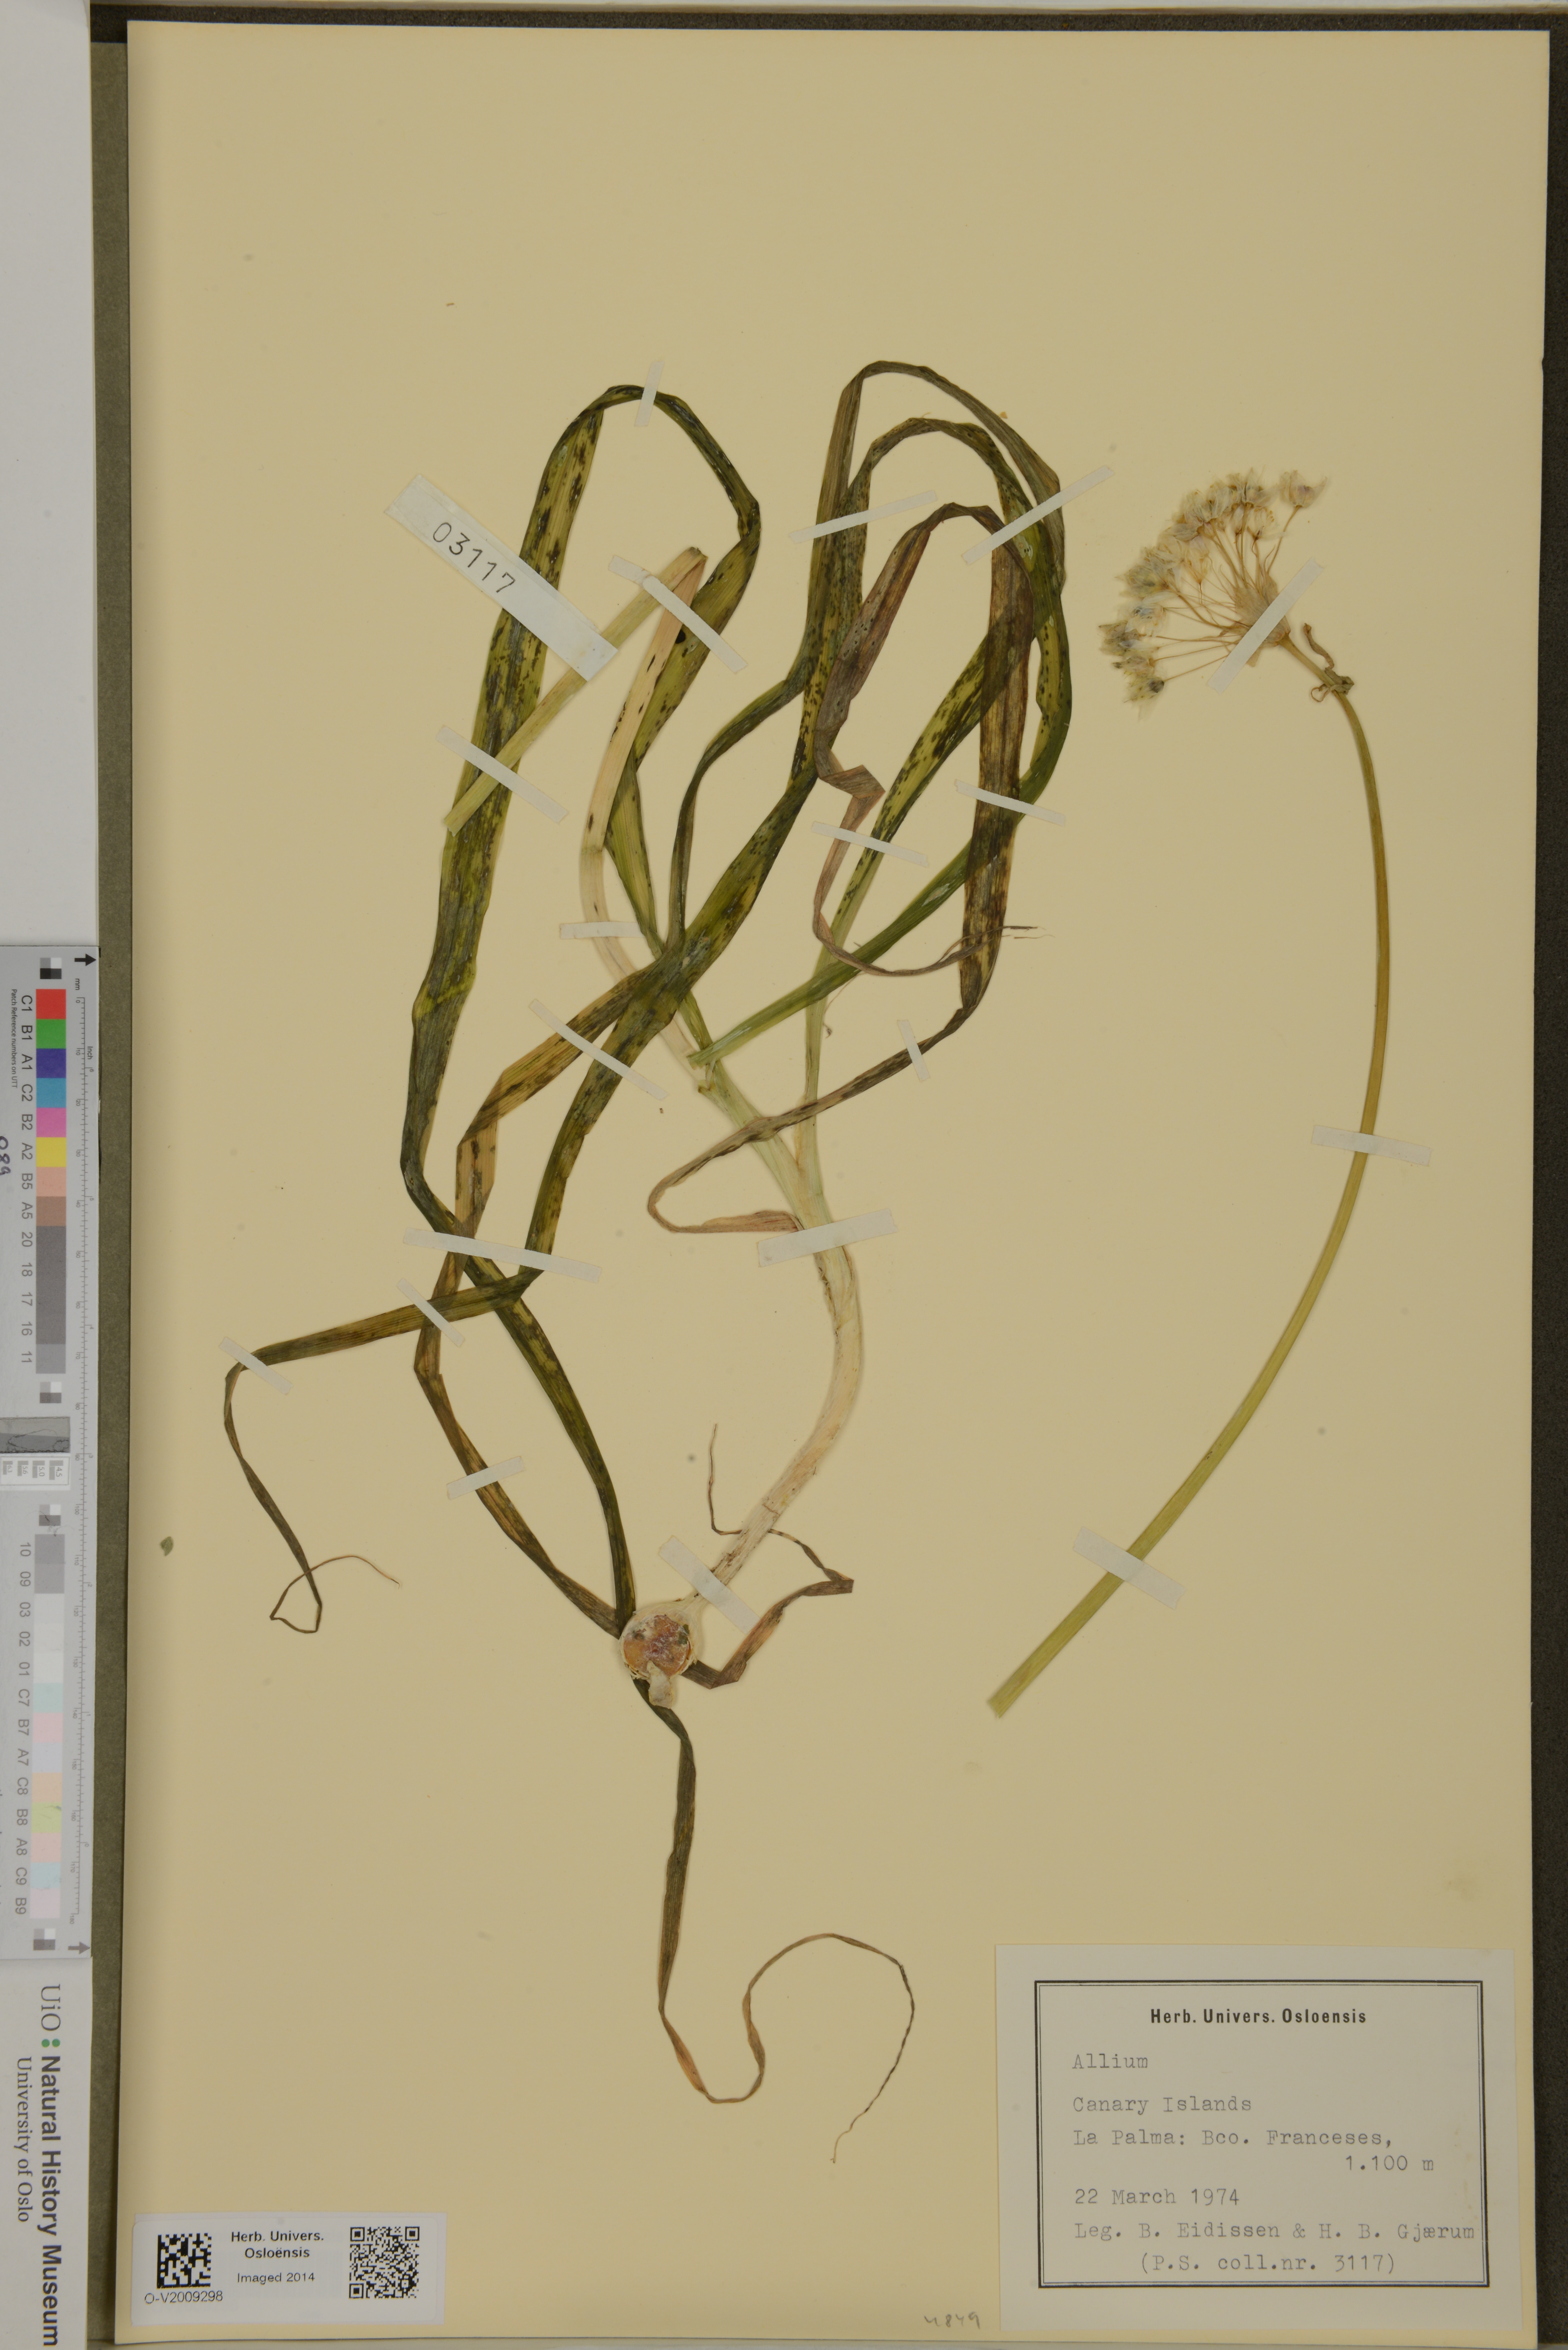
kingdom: Plantae
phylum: Tracheophyta
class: Liliopsida
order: Asparagales
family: Amaryllidaceae
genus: Allium
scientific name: Allium
